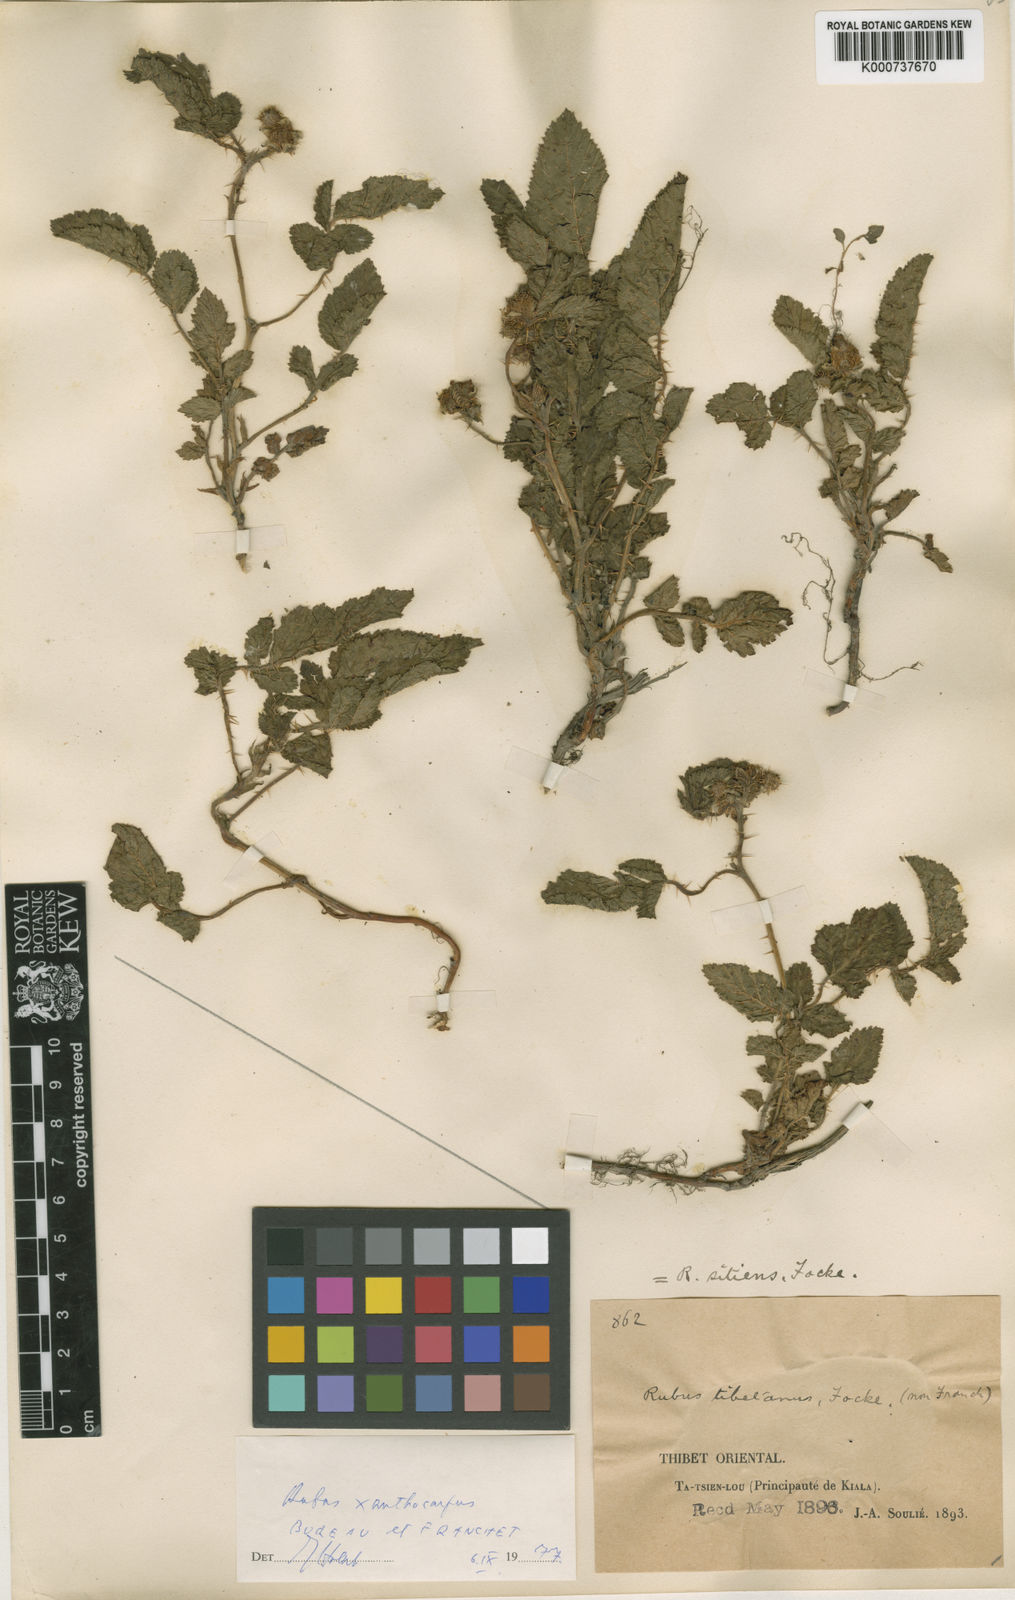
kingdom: Plantae
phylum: Tracheophyta
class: Magnoliopsida
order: Rosales
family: Rosaceae
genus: Rubus
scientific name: Rubus xanthocarpus
